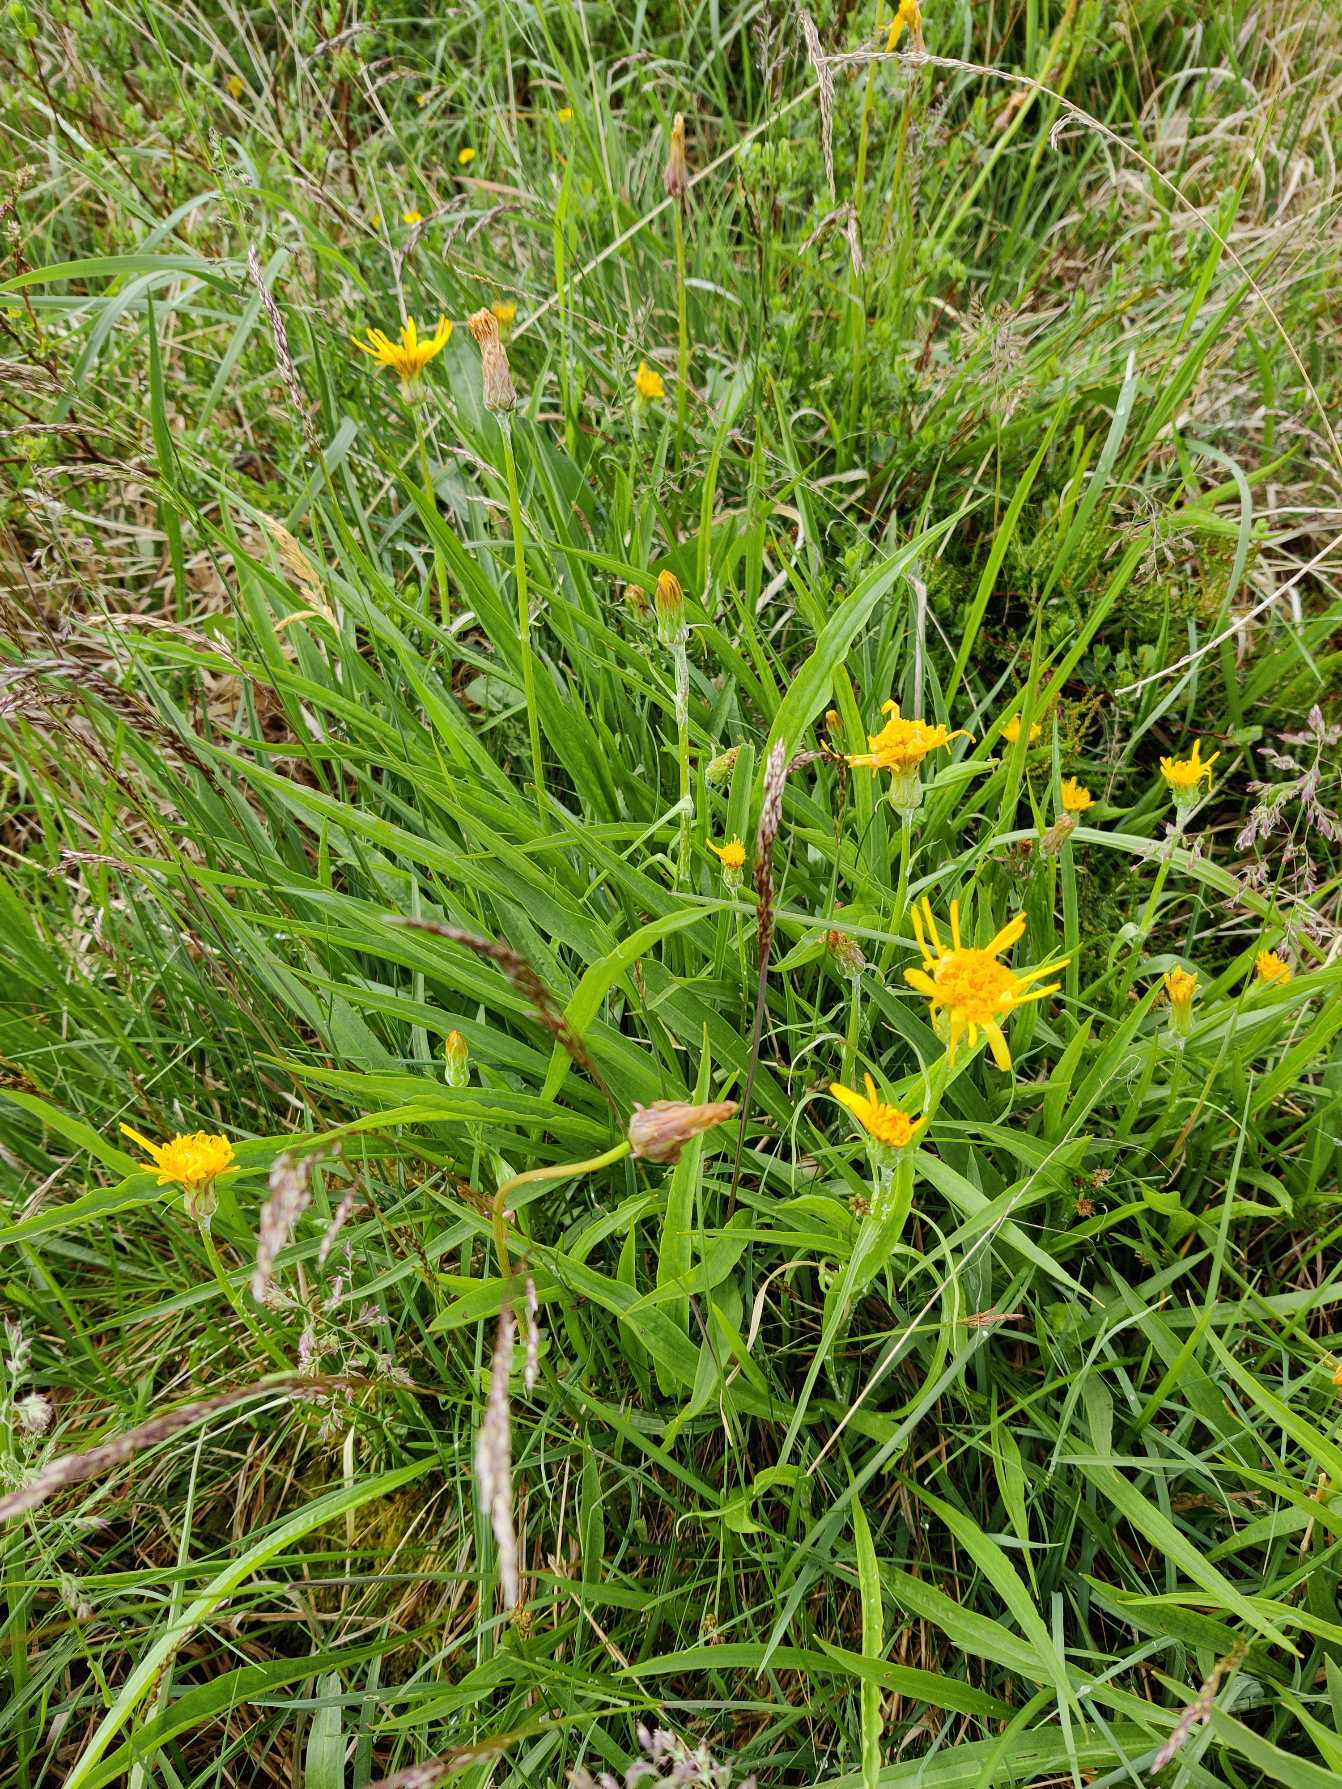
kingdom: Plantae
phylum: Tracheophyta
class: Magnoliopsida
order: Asterales
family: Asteraceae
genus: Scorzonera
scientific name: Scorzonera humilis
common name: Lav skorsoner
